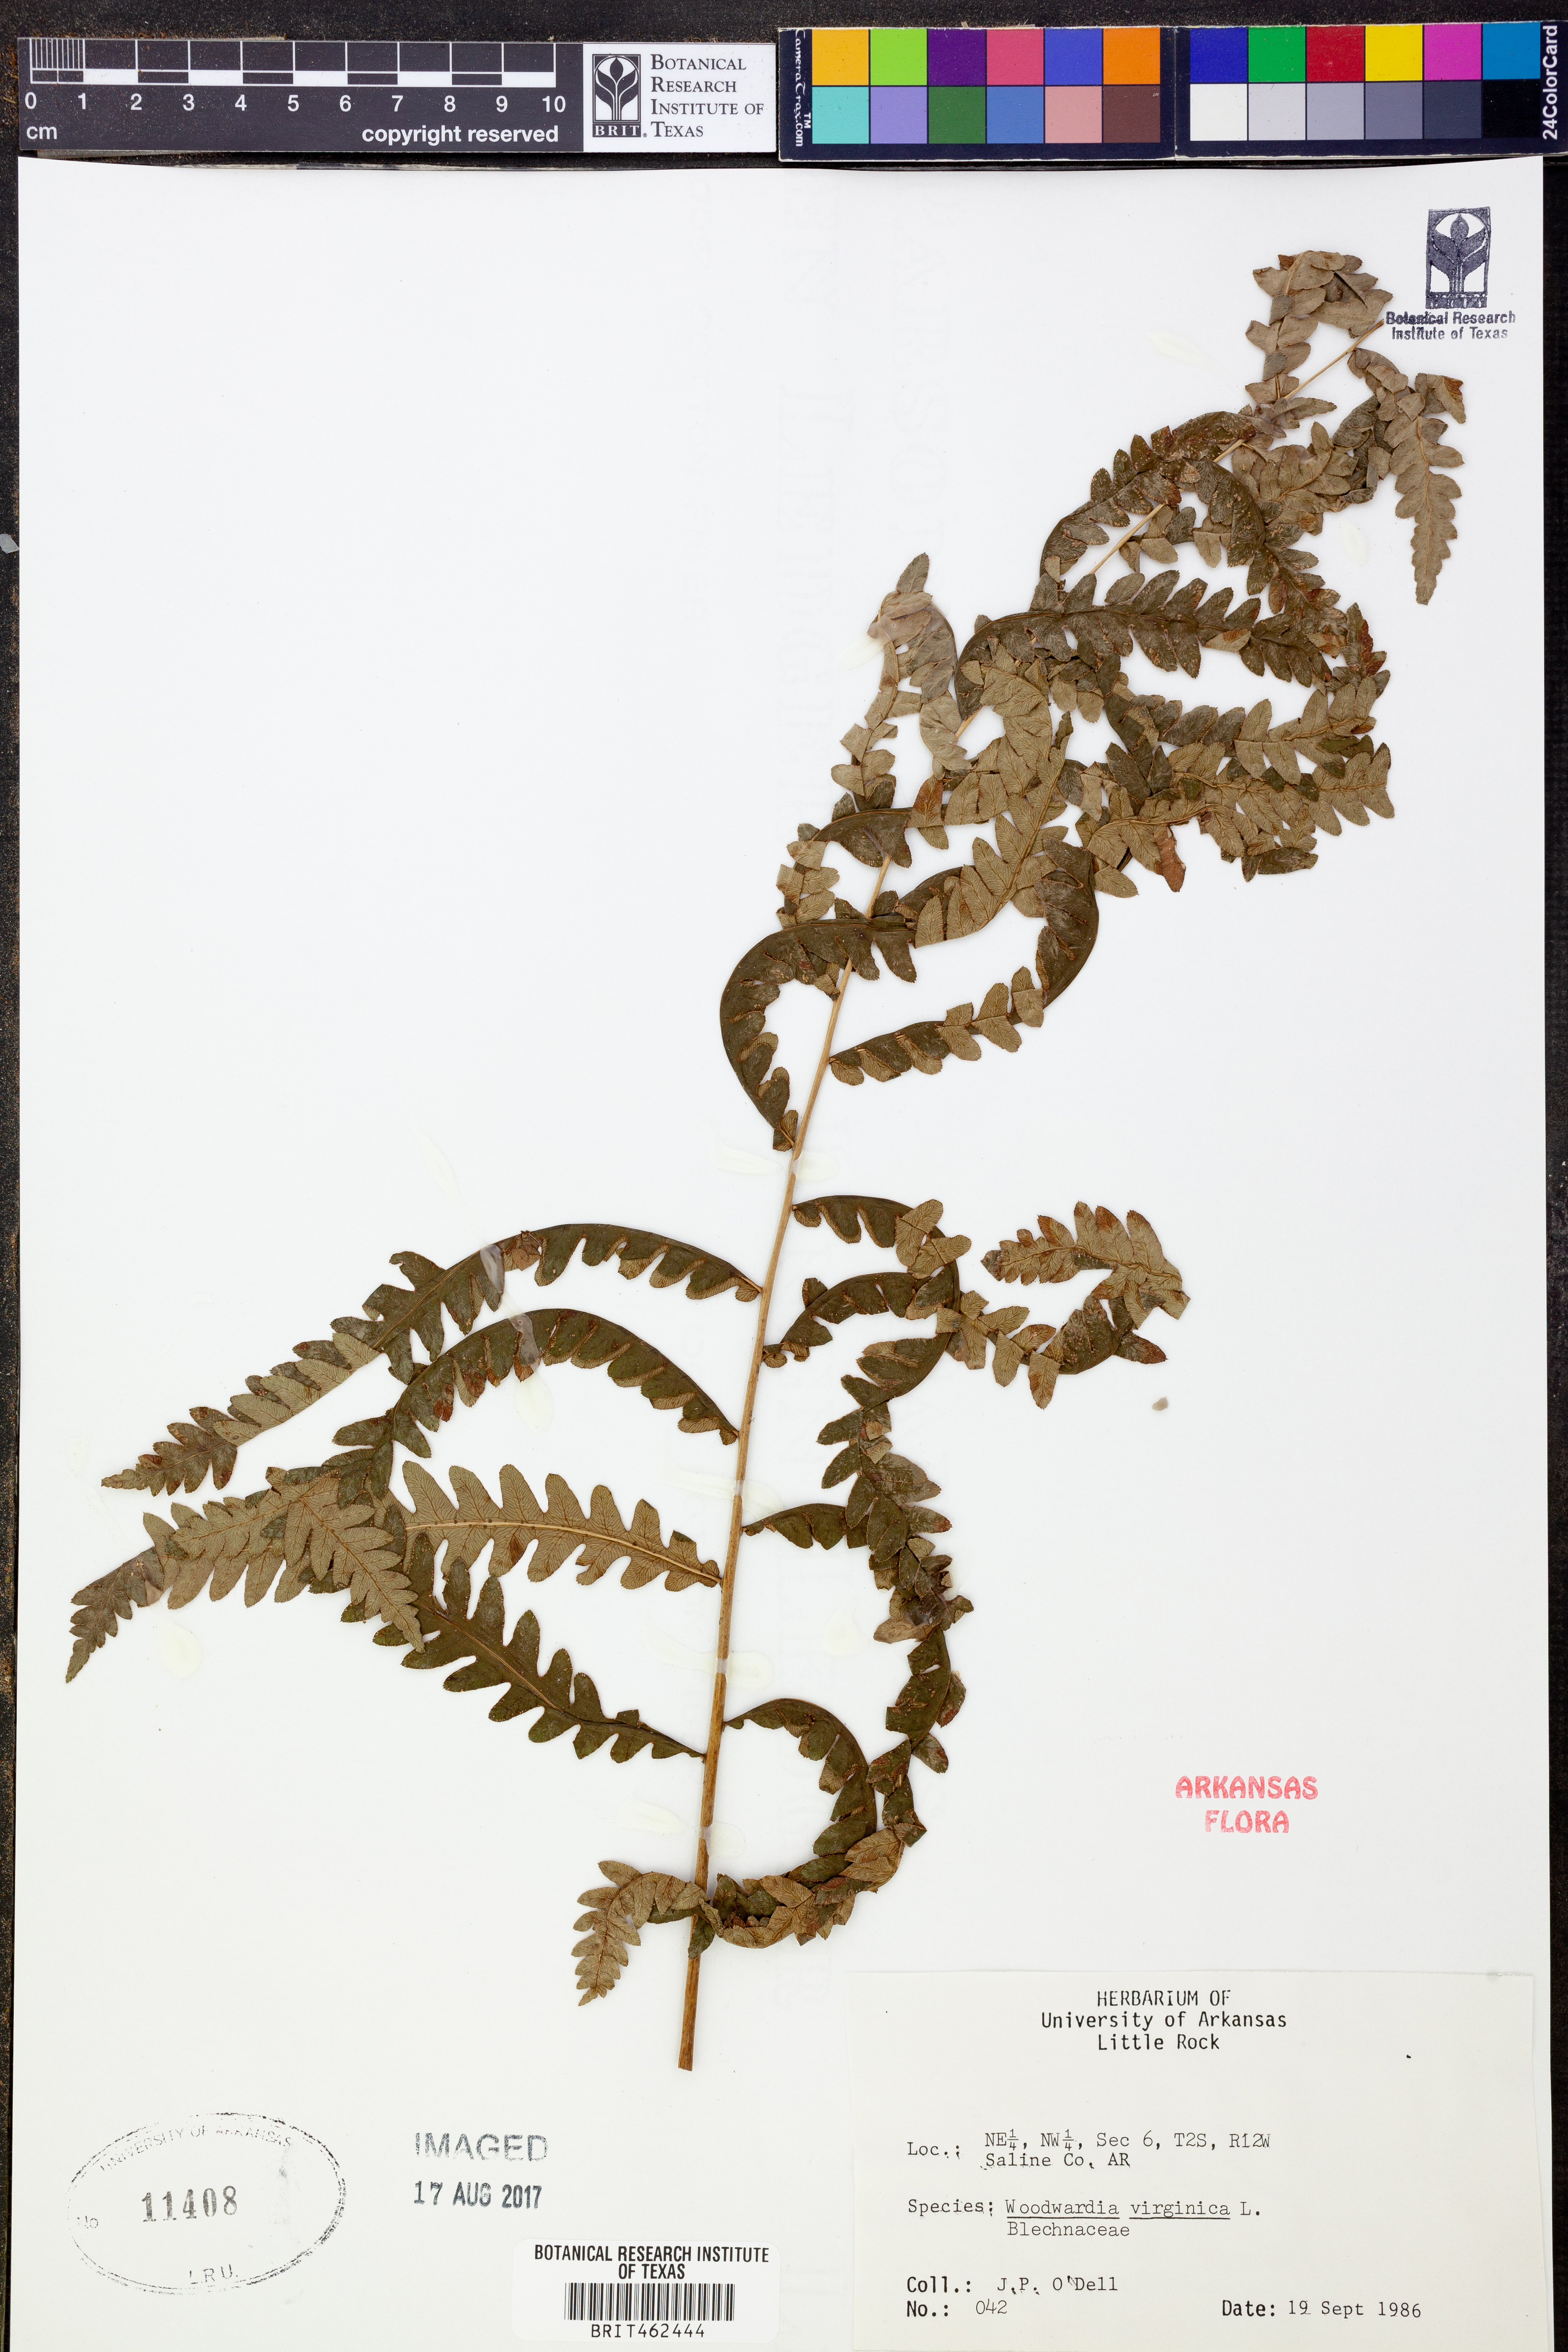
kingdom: Plantae
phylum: Tracheophyta
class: Polypodiopsida
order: Polypodiales
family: Blechnaceae
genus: Anchistea
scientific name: Anchistea virginica
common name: Virginia chain fern
